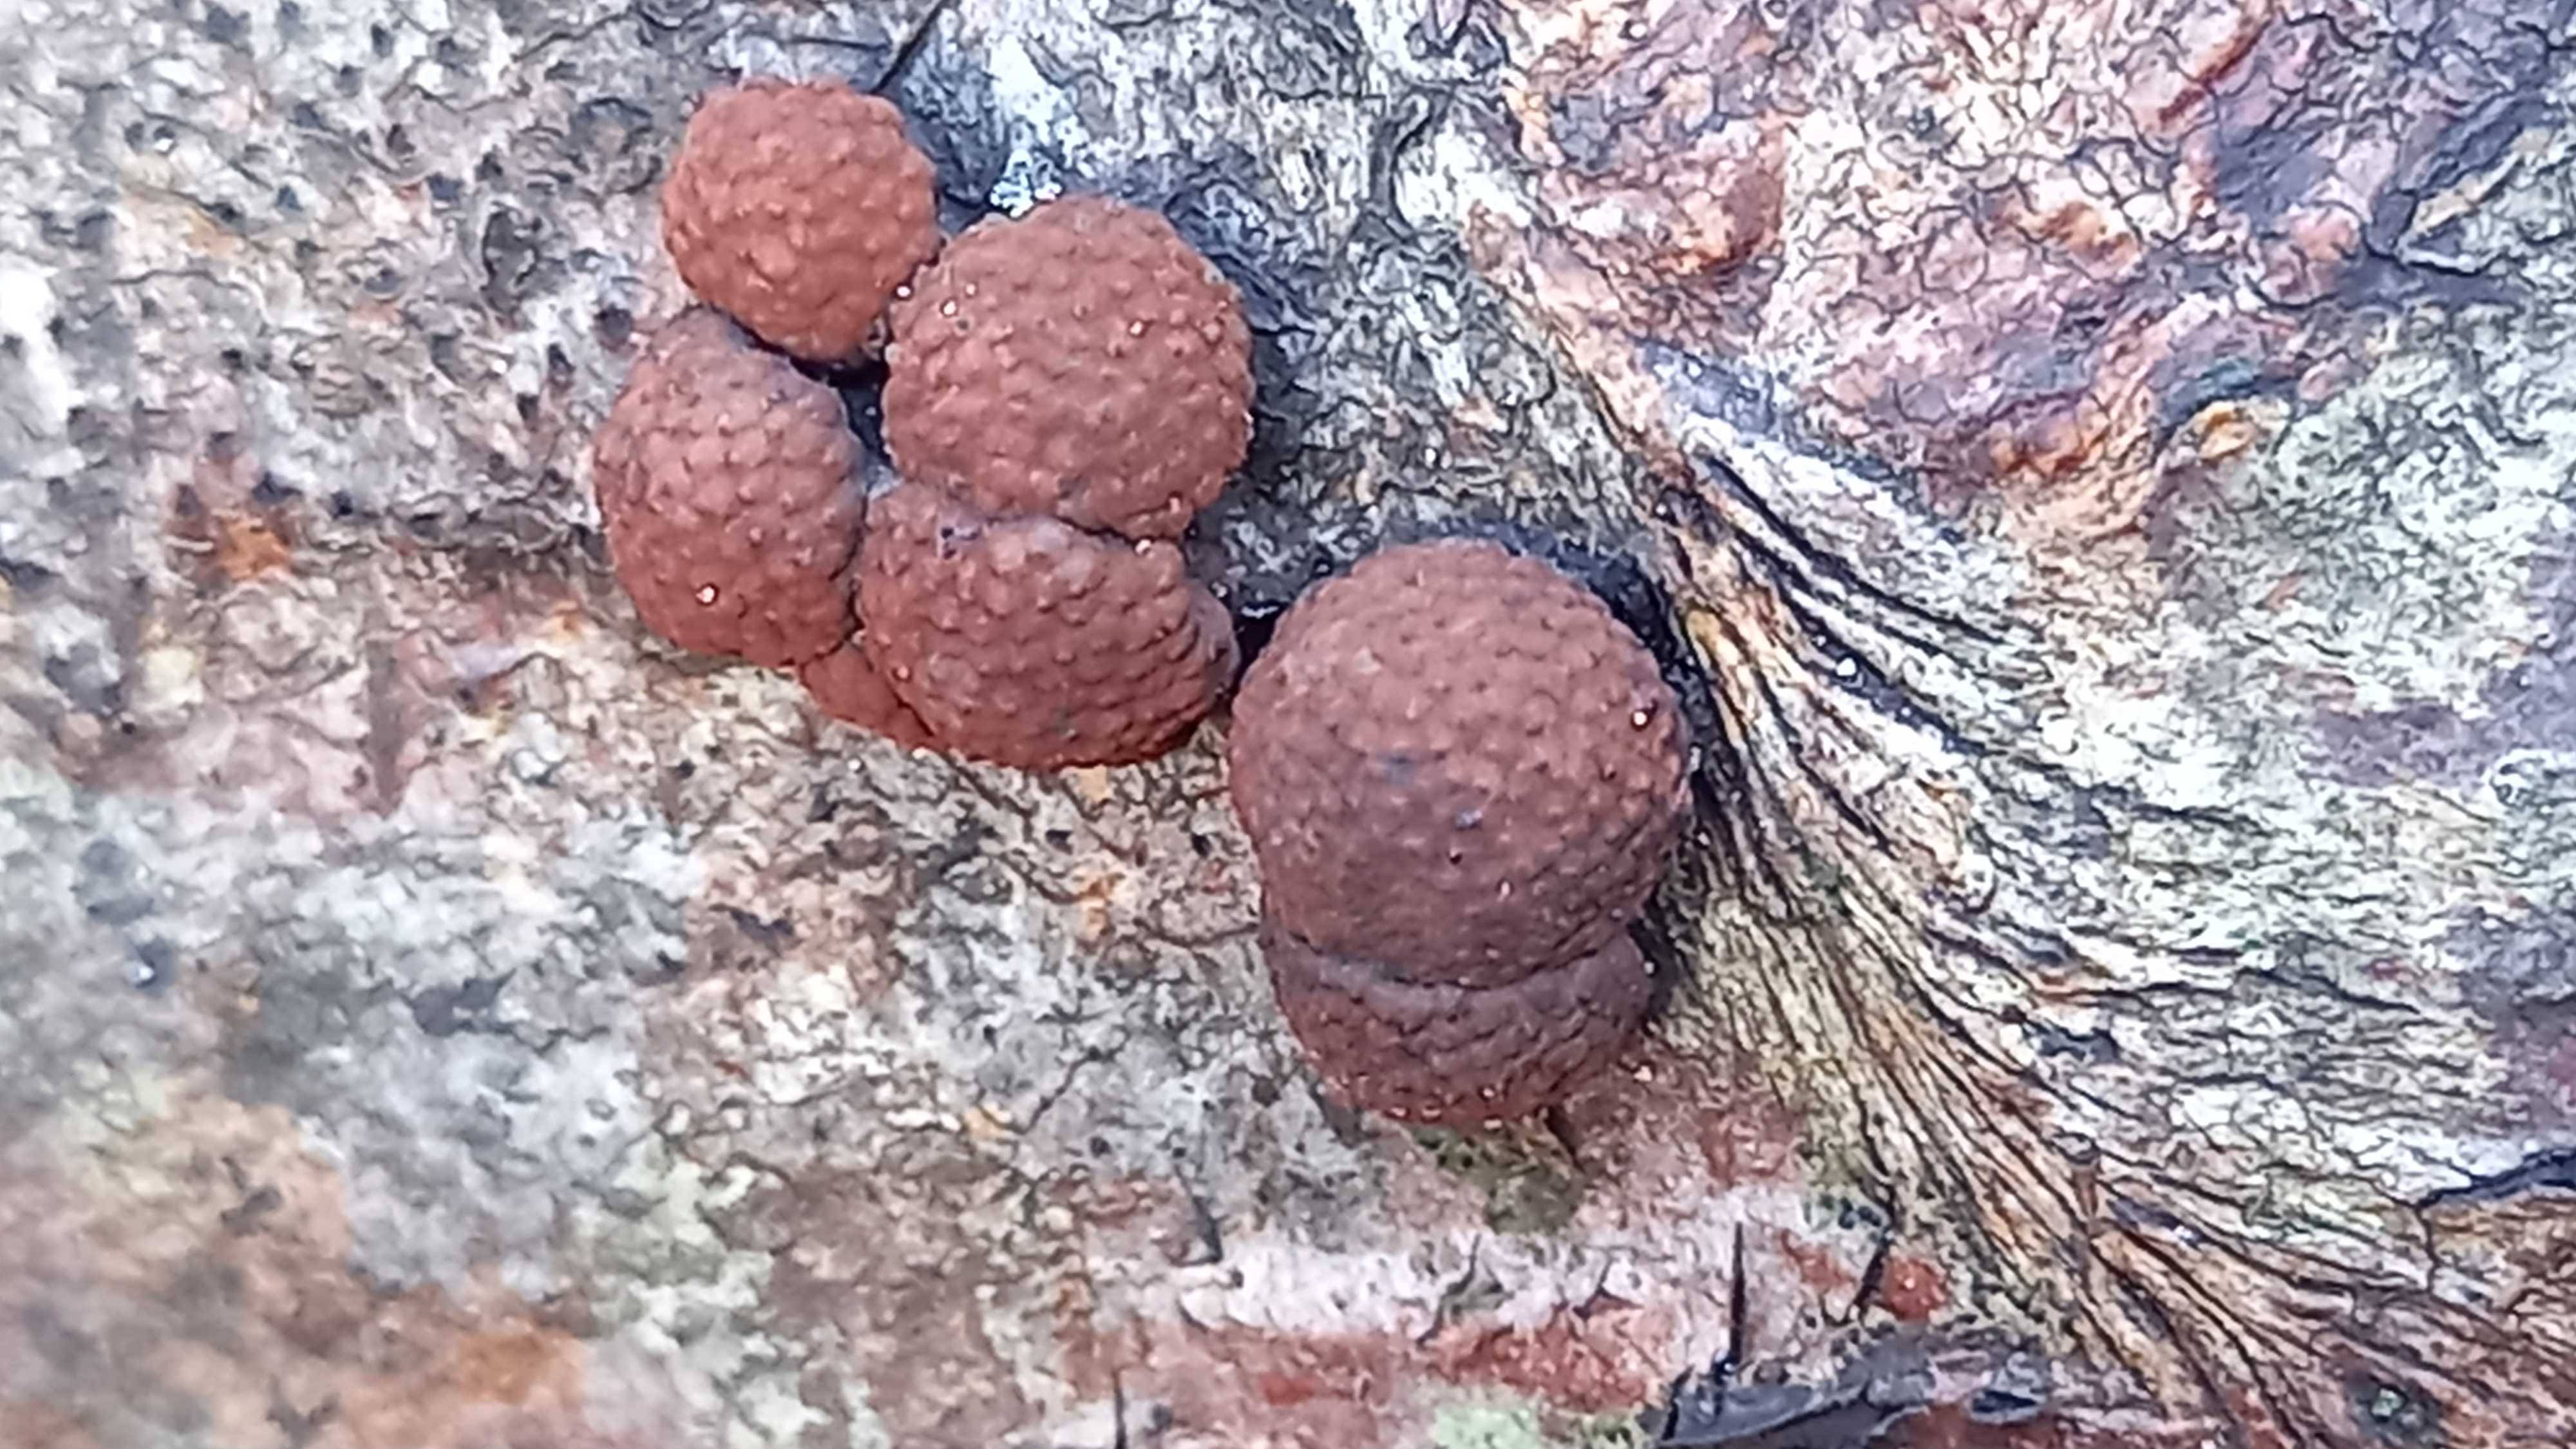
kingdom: Fungi
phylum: Ascomycota
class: Sordariomycetes
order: Xylariales
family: Hypoxylaceae
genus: Hypoxylon
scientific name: Hypoxylon fragiforme
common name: kuljordbær
